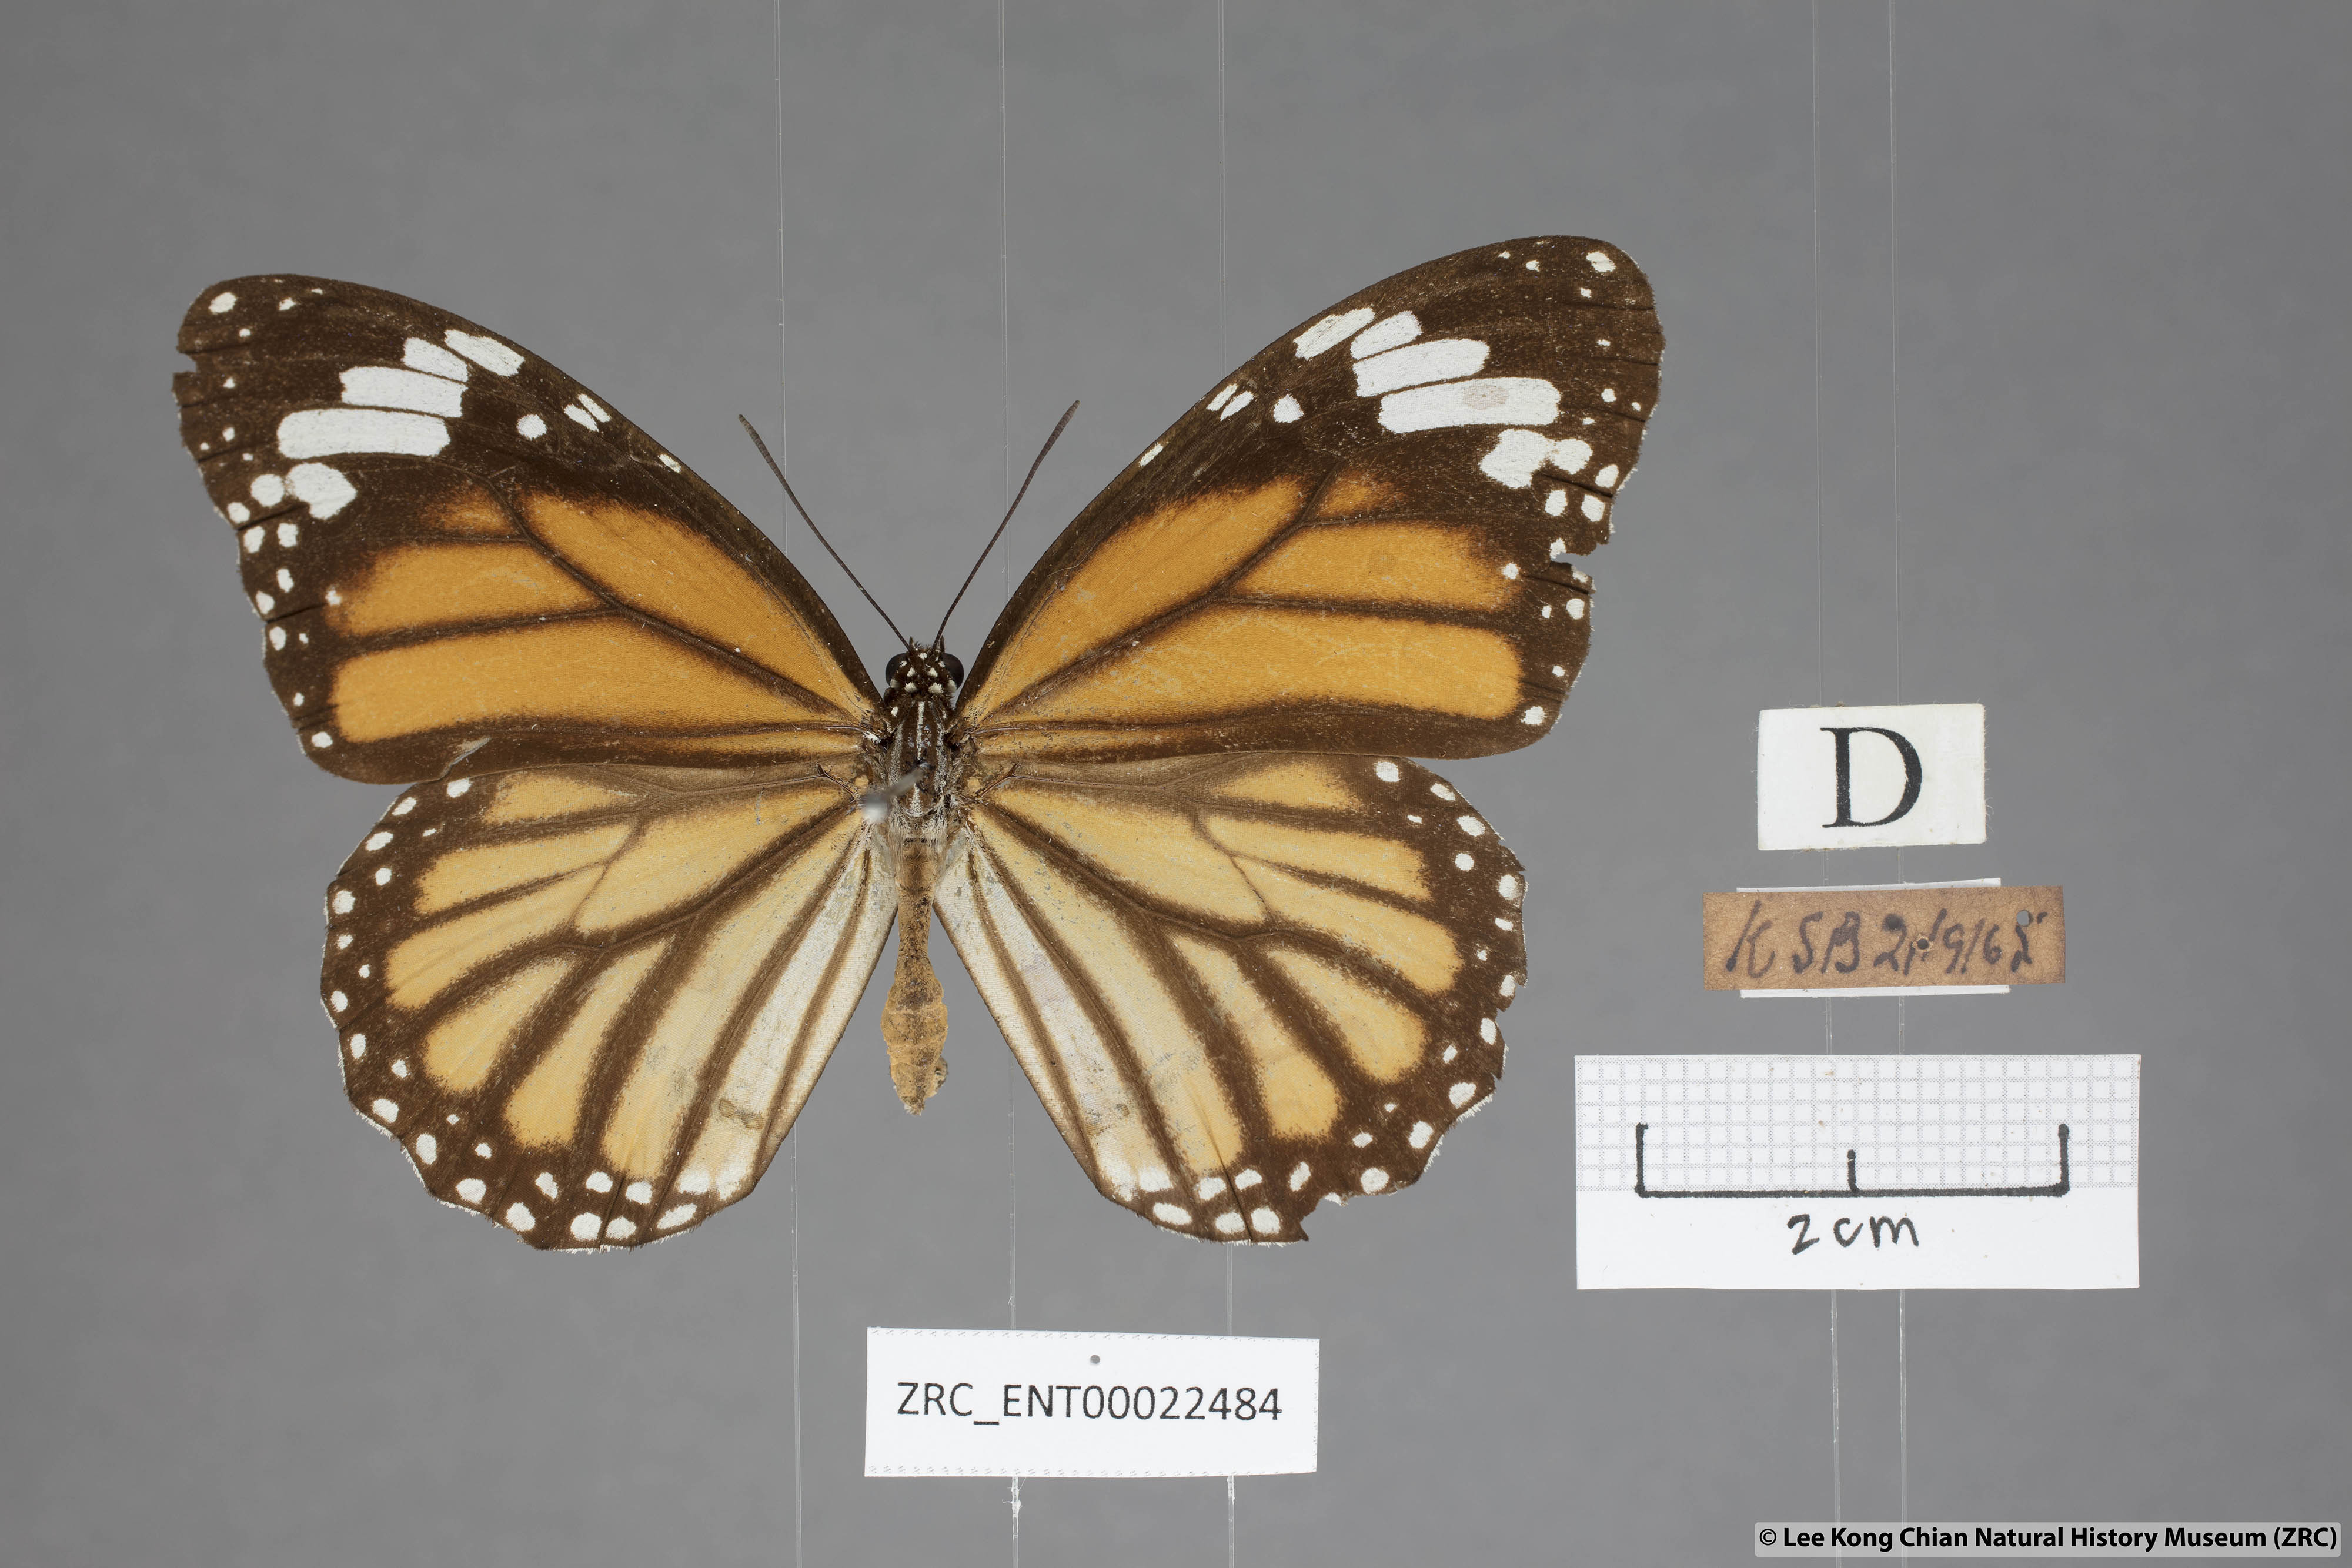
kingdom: Animalia
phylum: Arthropoda
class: Insecta
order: Lepidoptera
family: Nymphalidae
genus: Danaus
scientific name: Danaus genutia
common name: Common tiger butterfly
